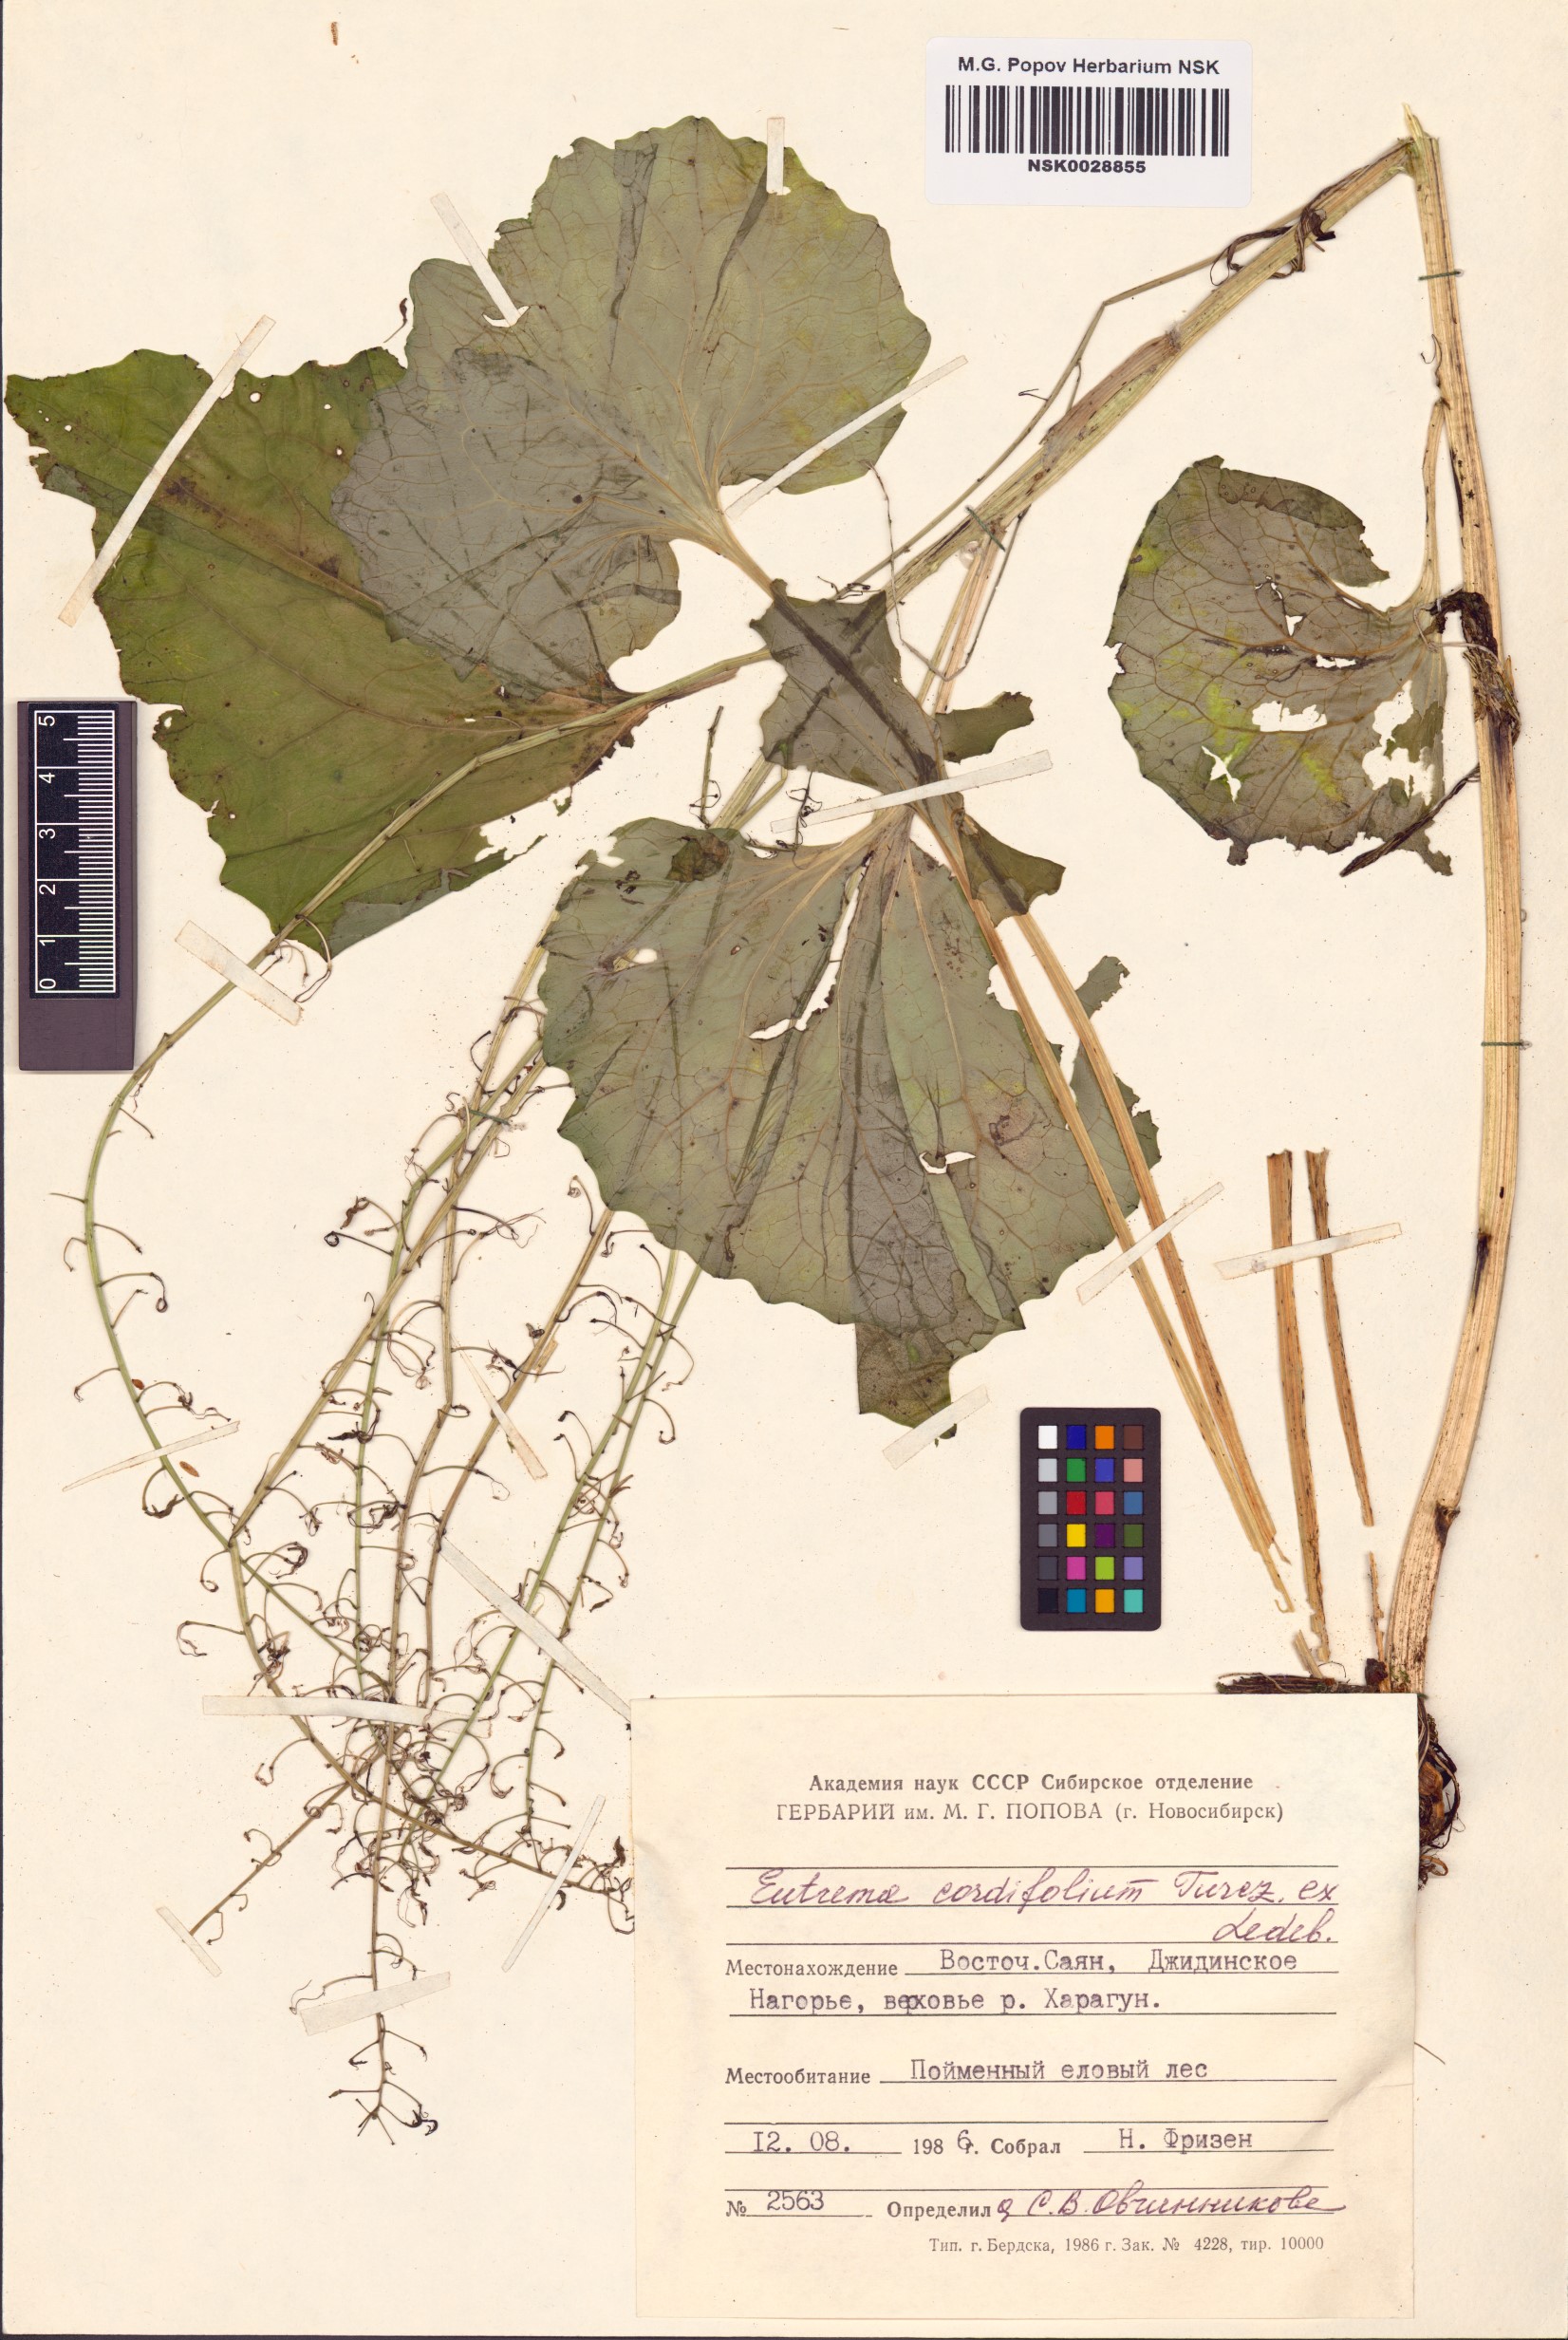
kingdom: Plantae
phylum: Tracheophyta
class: Magnoliopsida
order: Brassicales
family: Brassicaceae
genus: Eutrema
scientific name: Eutrema cordifolium
